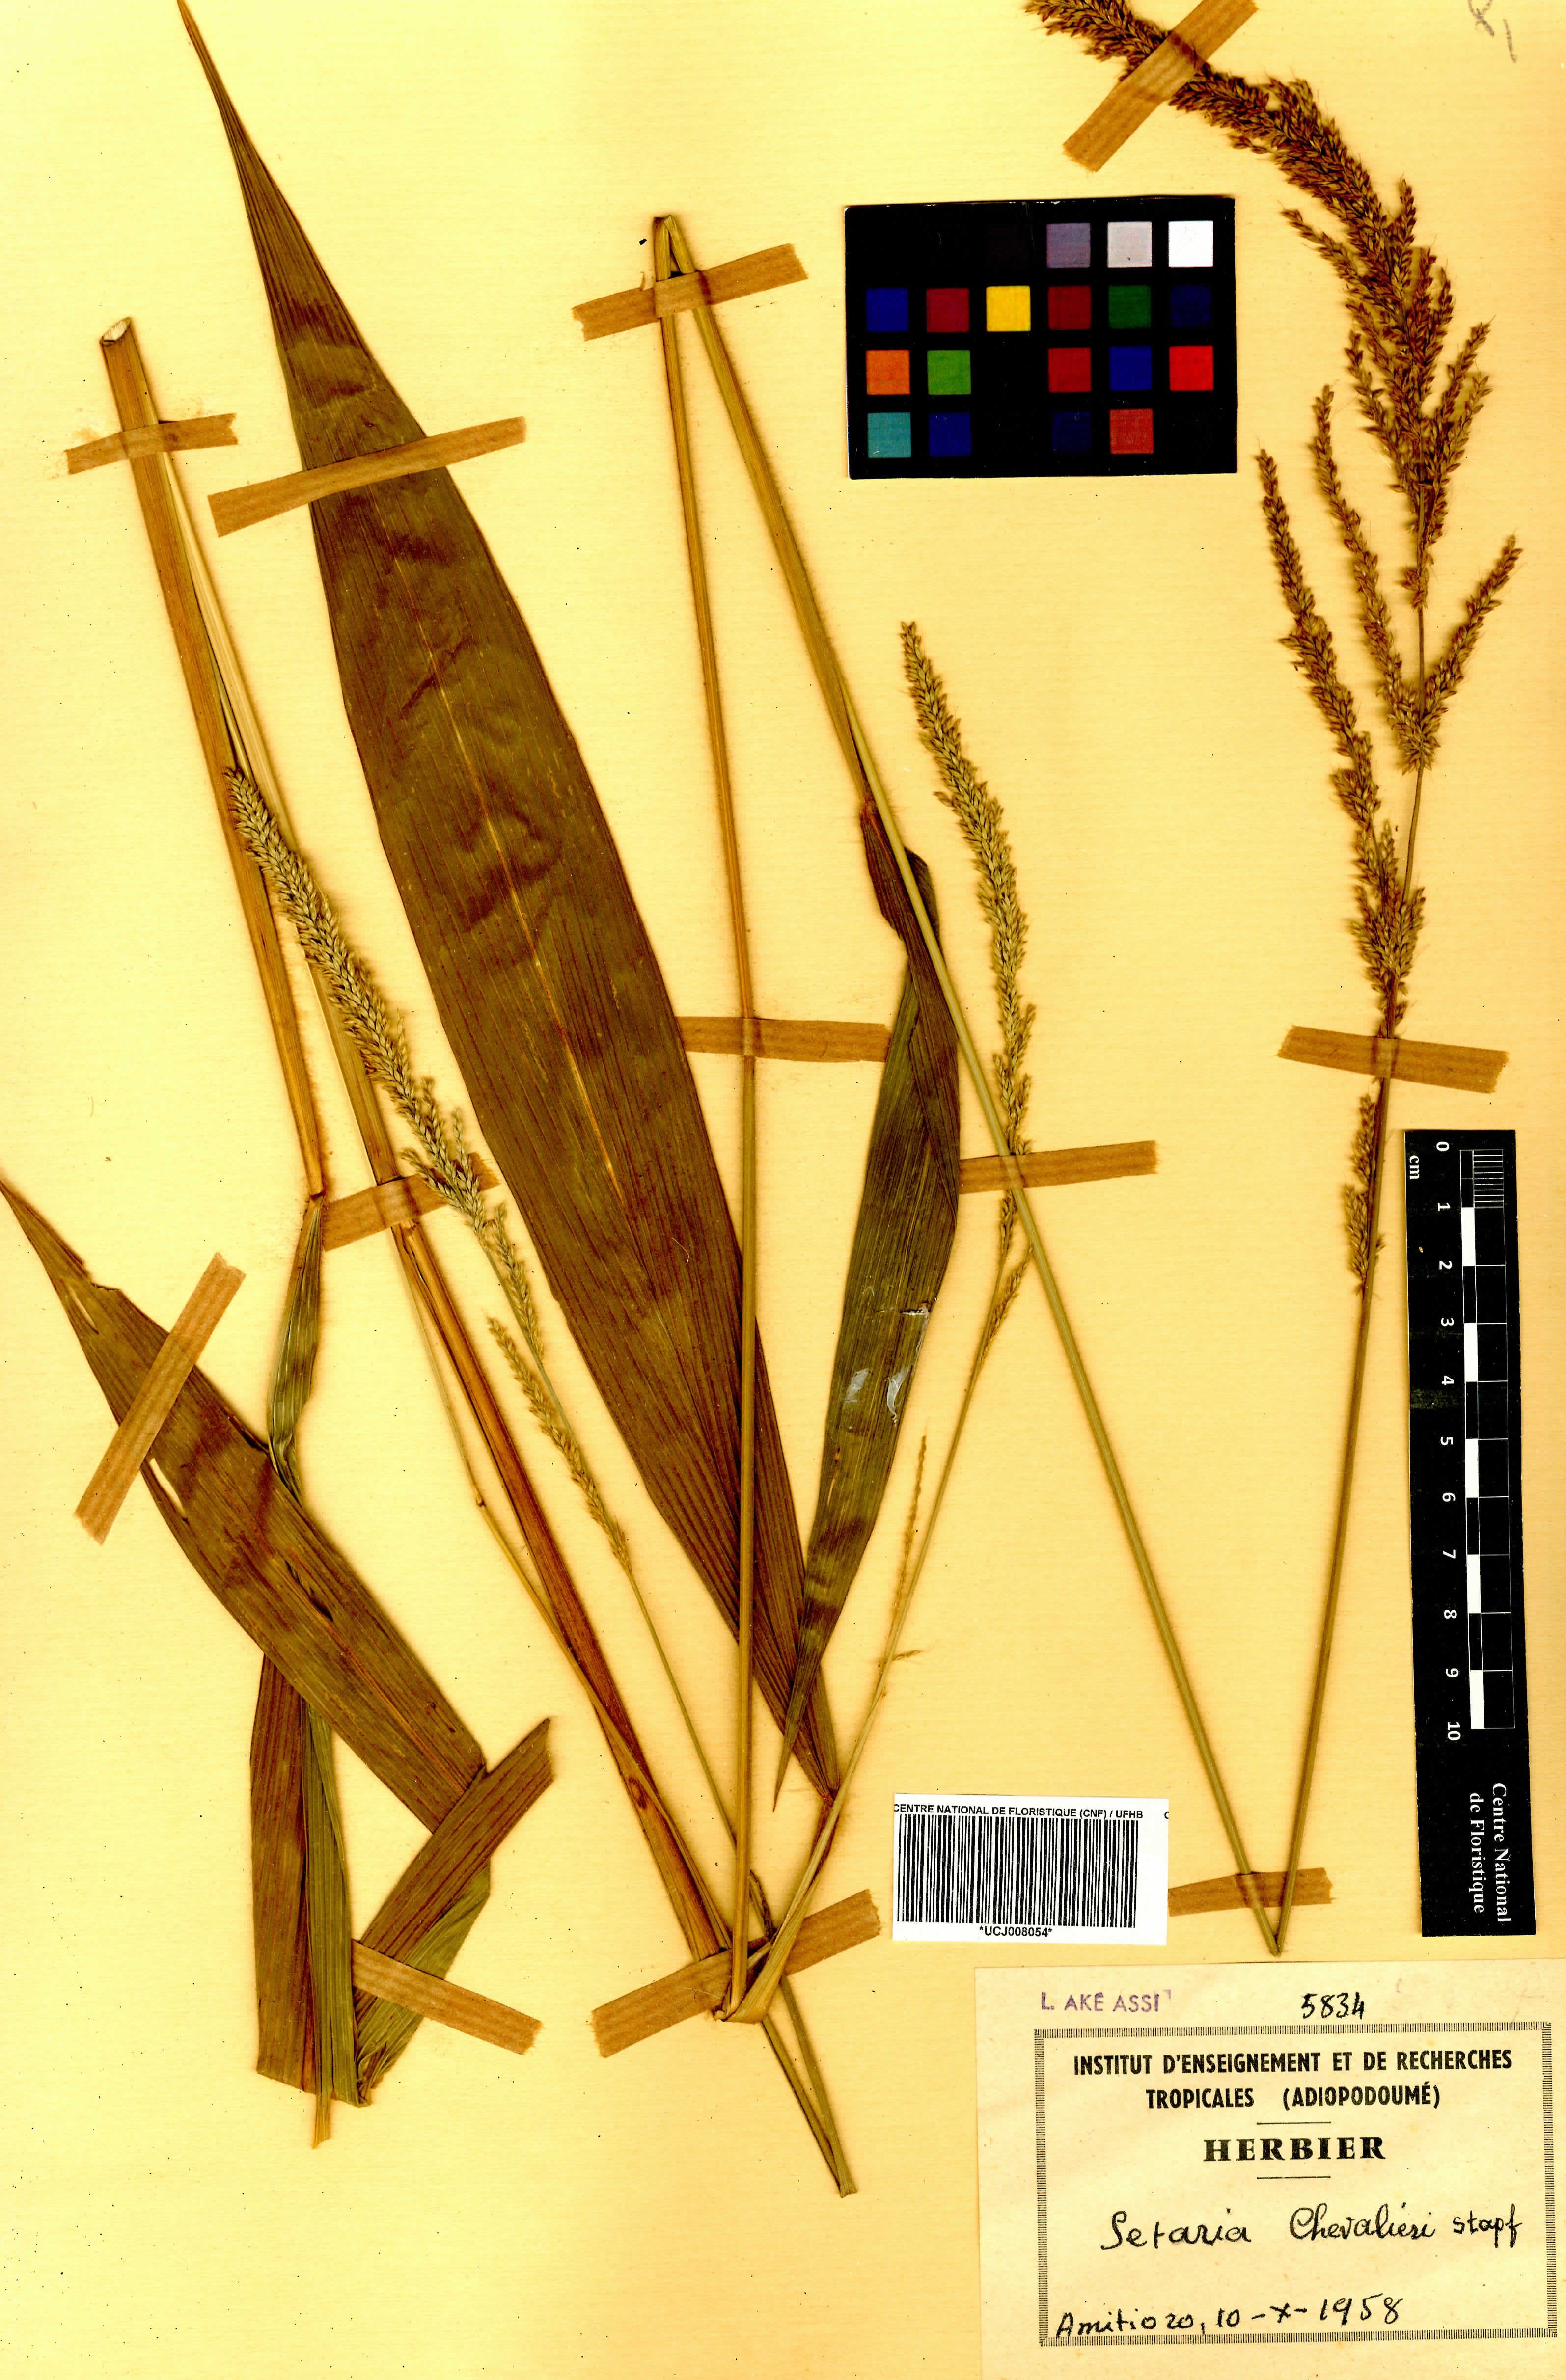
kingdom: Plantae
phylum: Tracheophyta
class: Liliopsida
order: Poales
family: Poaceae
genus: Setaria
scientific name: Setaria megaphylla
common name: Bigleaf bristlegrass
